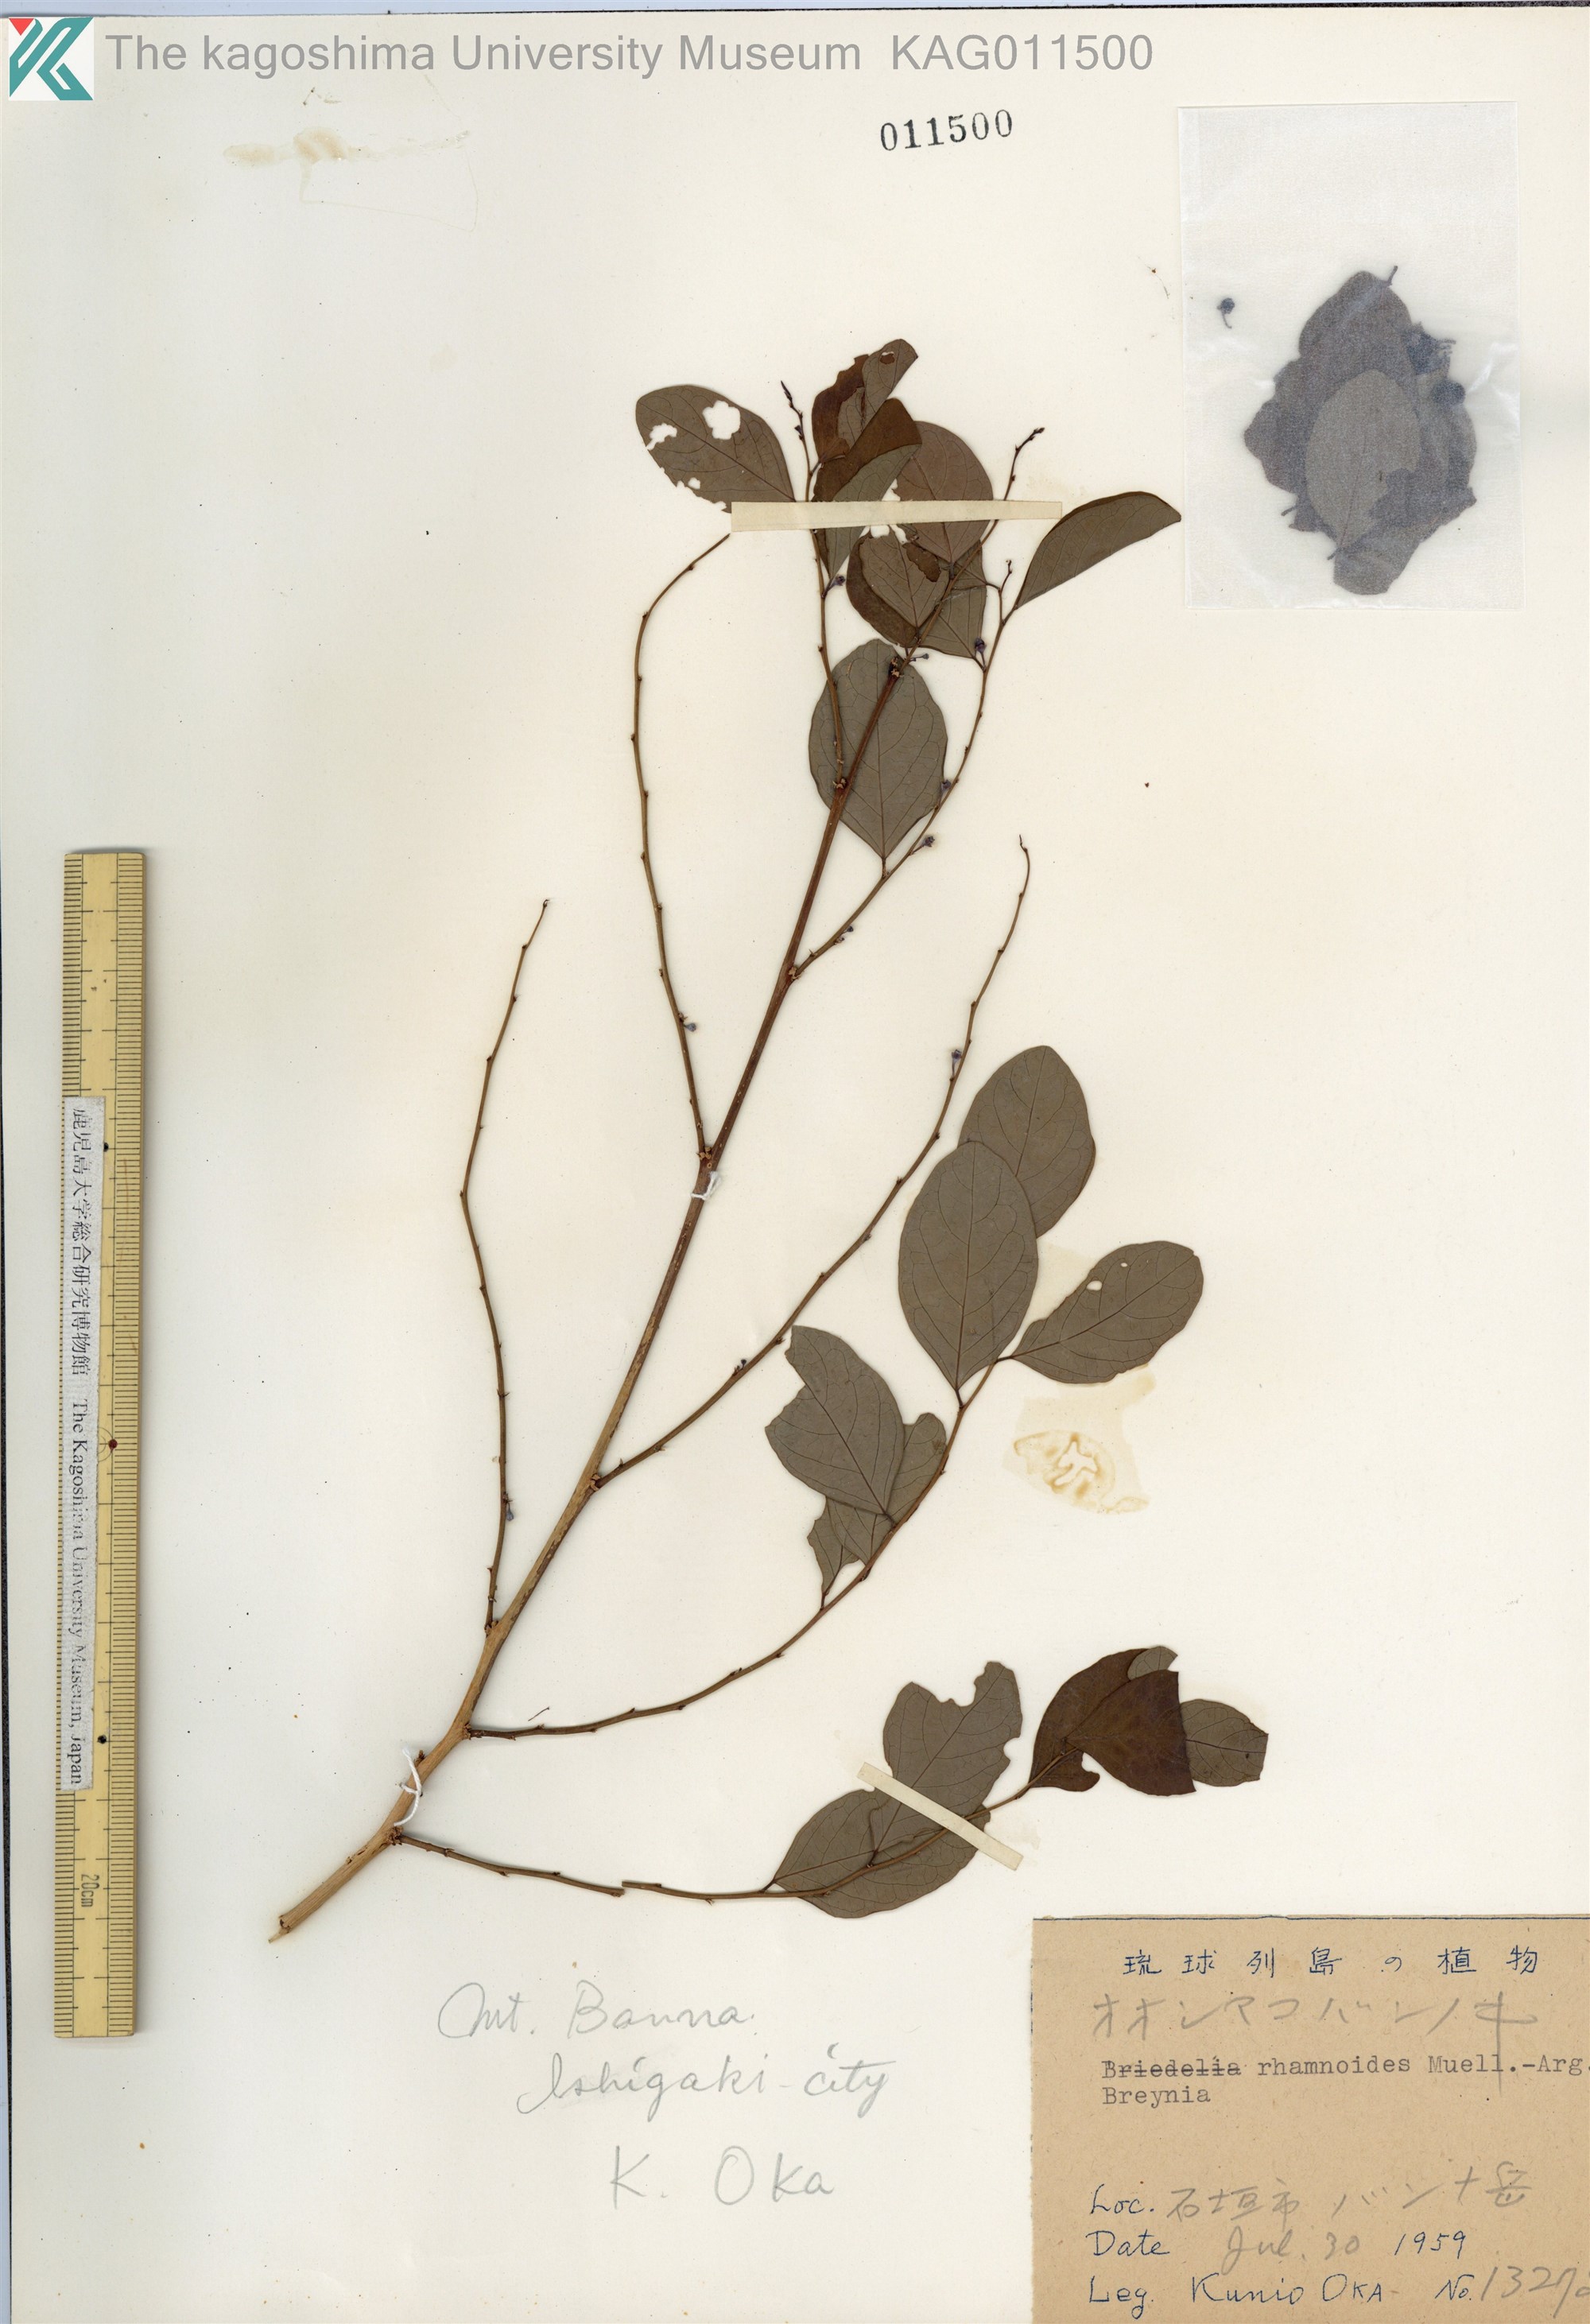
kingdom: Plantae
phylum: Tracheophyta
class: Magnoliopsida
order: Malpighiales
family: Phyllanthaceae
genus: Breynia
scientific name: Breynia vitis-idaea
